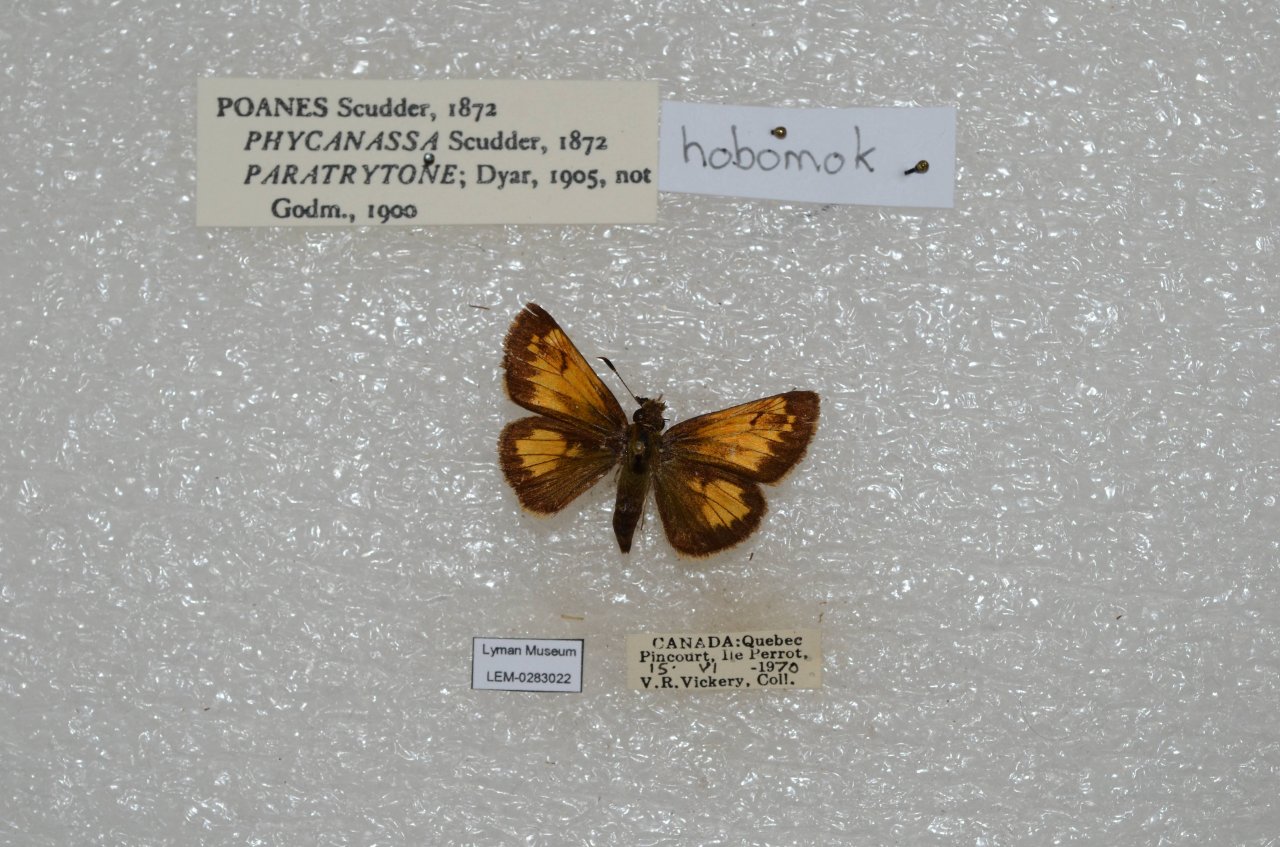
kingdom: Animalia
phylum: Arthropoda
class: Insecta
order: Lepidoptera
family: Hesperiidae
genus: Lon
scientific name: Lon hobomok
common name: Hobomok Skipper
